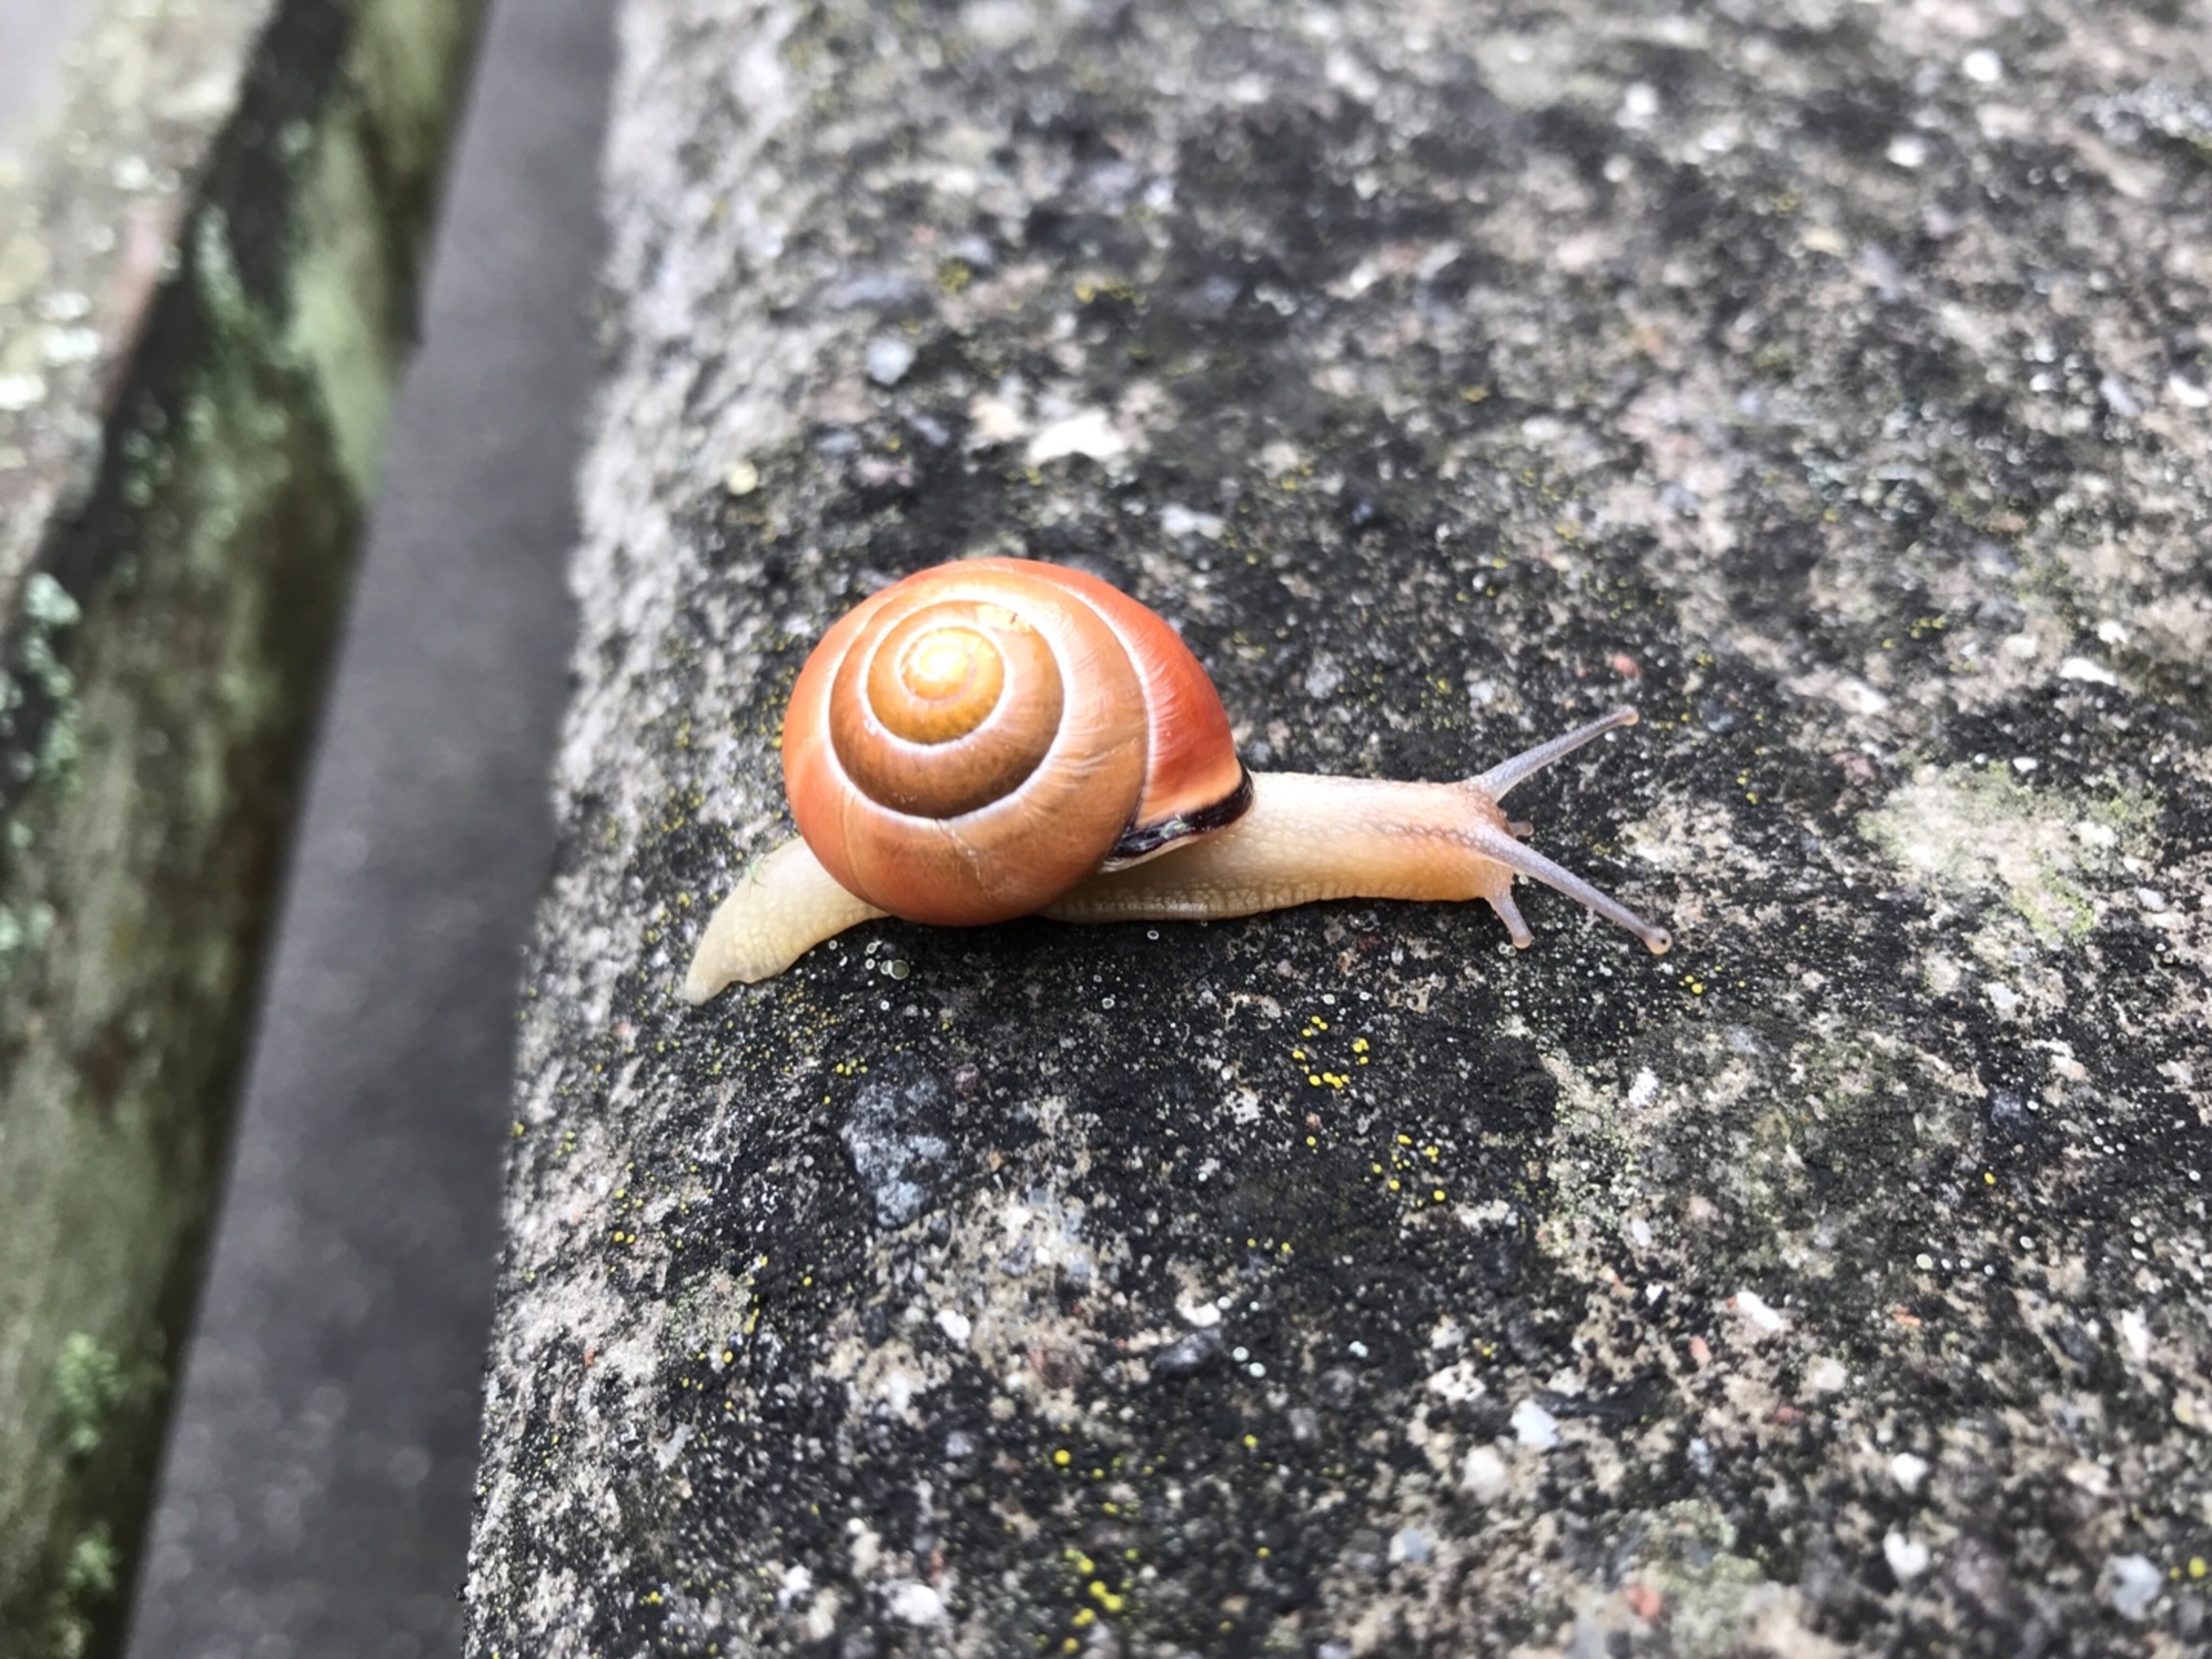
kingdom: Animalia
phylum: Mollusca
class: Gastropoda
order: Stylommatophora
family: Helicidae
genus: Cepaea
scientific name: Cepaea nemoralis
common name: Lundsnegl
